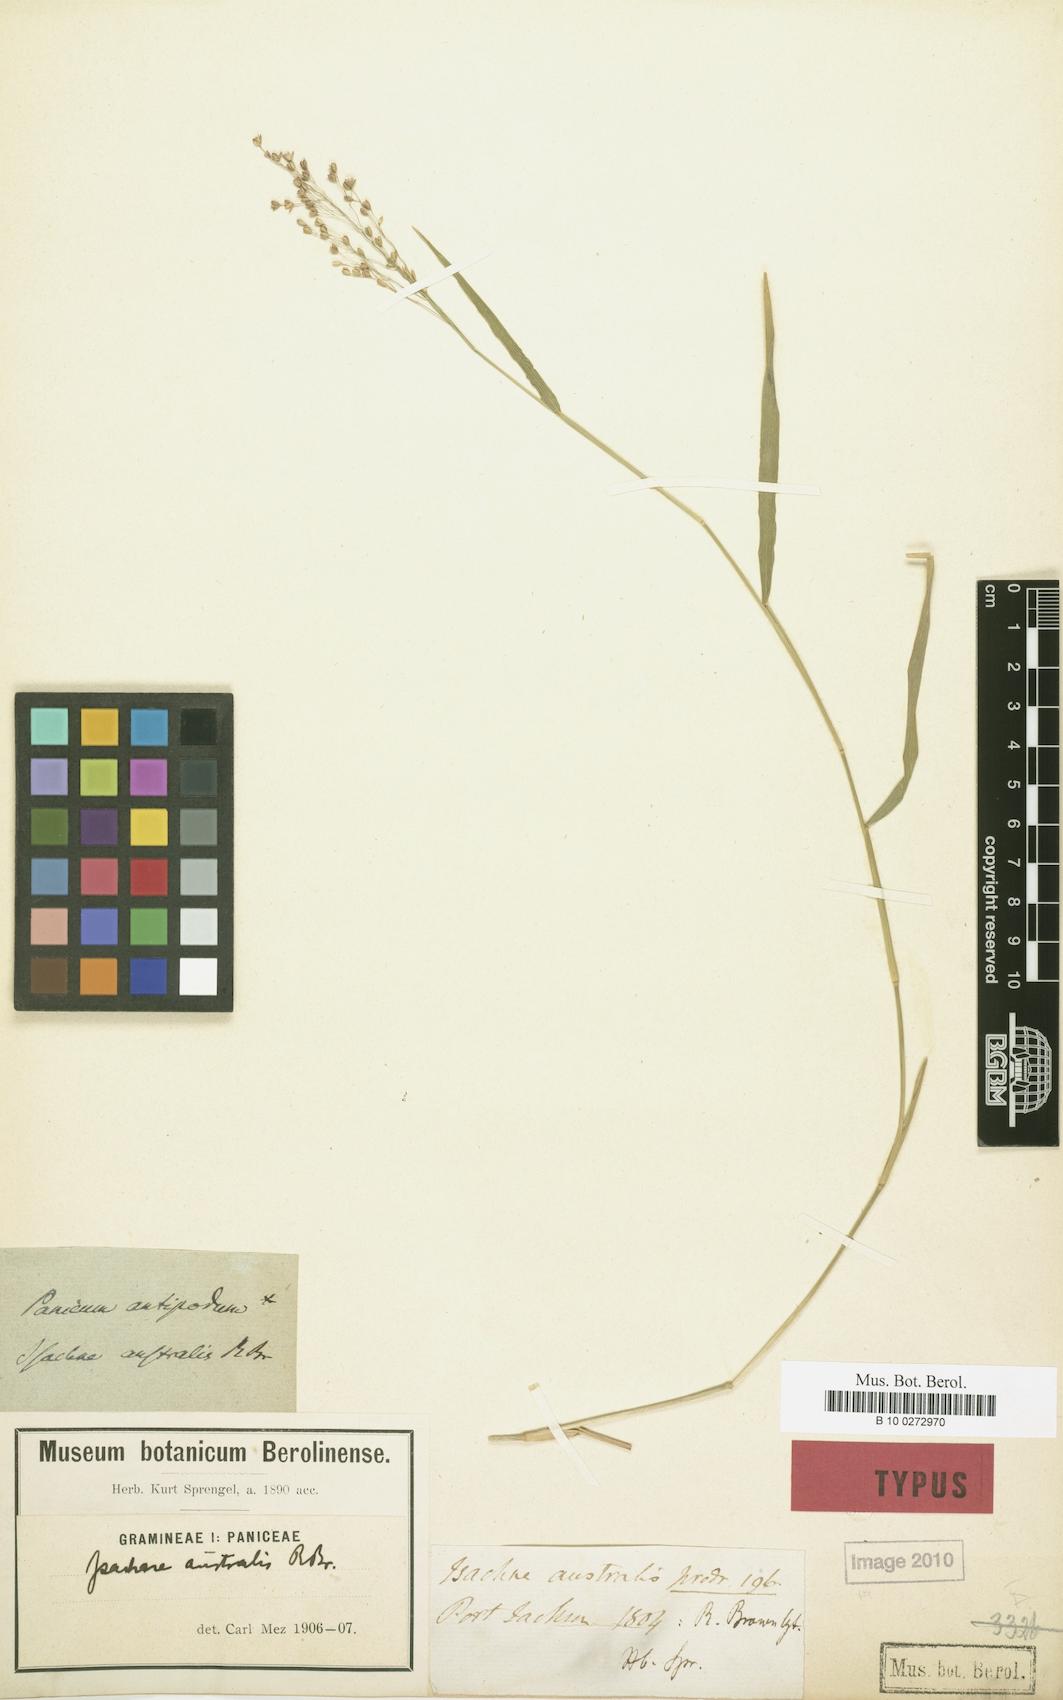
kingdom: Plantae
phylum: Tracheophyta
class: Liliopsida
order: Poales
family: Poaceae
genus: Isachne
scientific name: Isachne globosa
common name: Swamp millet
